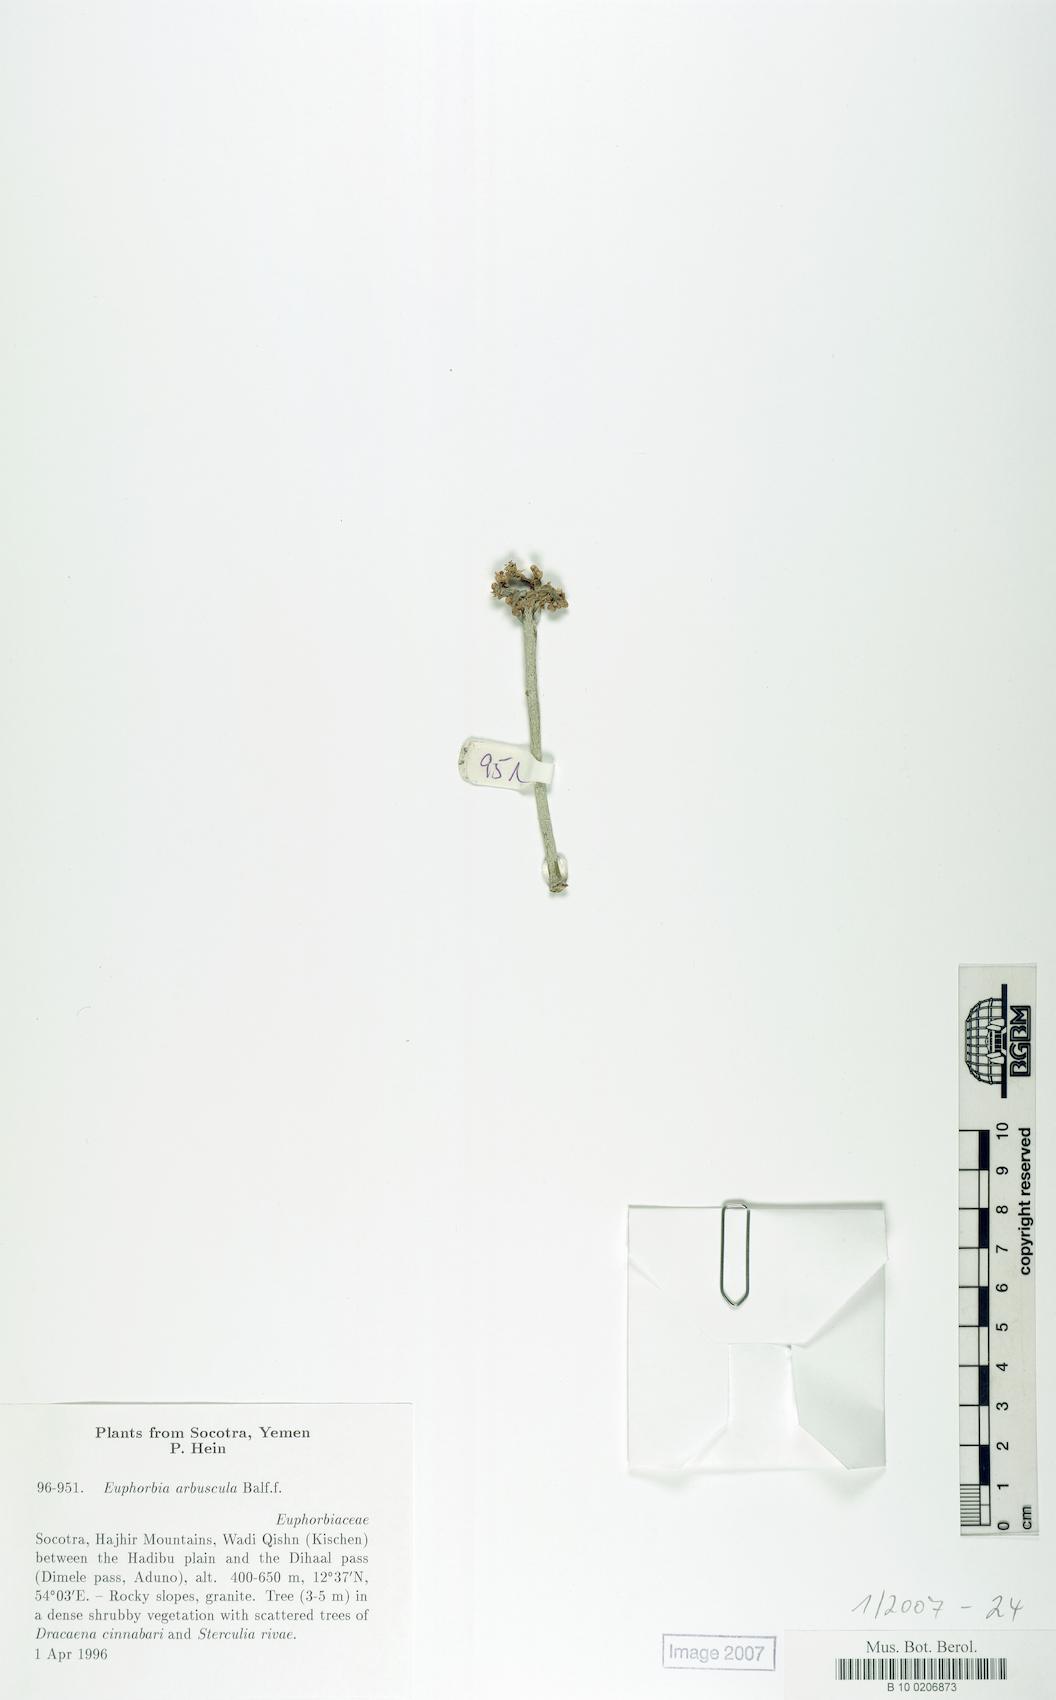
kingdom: Plantae
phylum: Tracheophyta
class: Magnoliopsida
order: Malpighiales
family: Euphorbiaceae
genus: Euphorbia
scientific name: Euphorbia arbuscula
